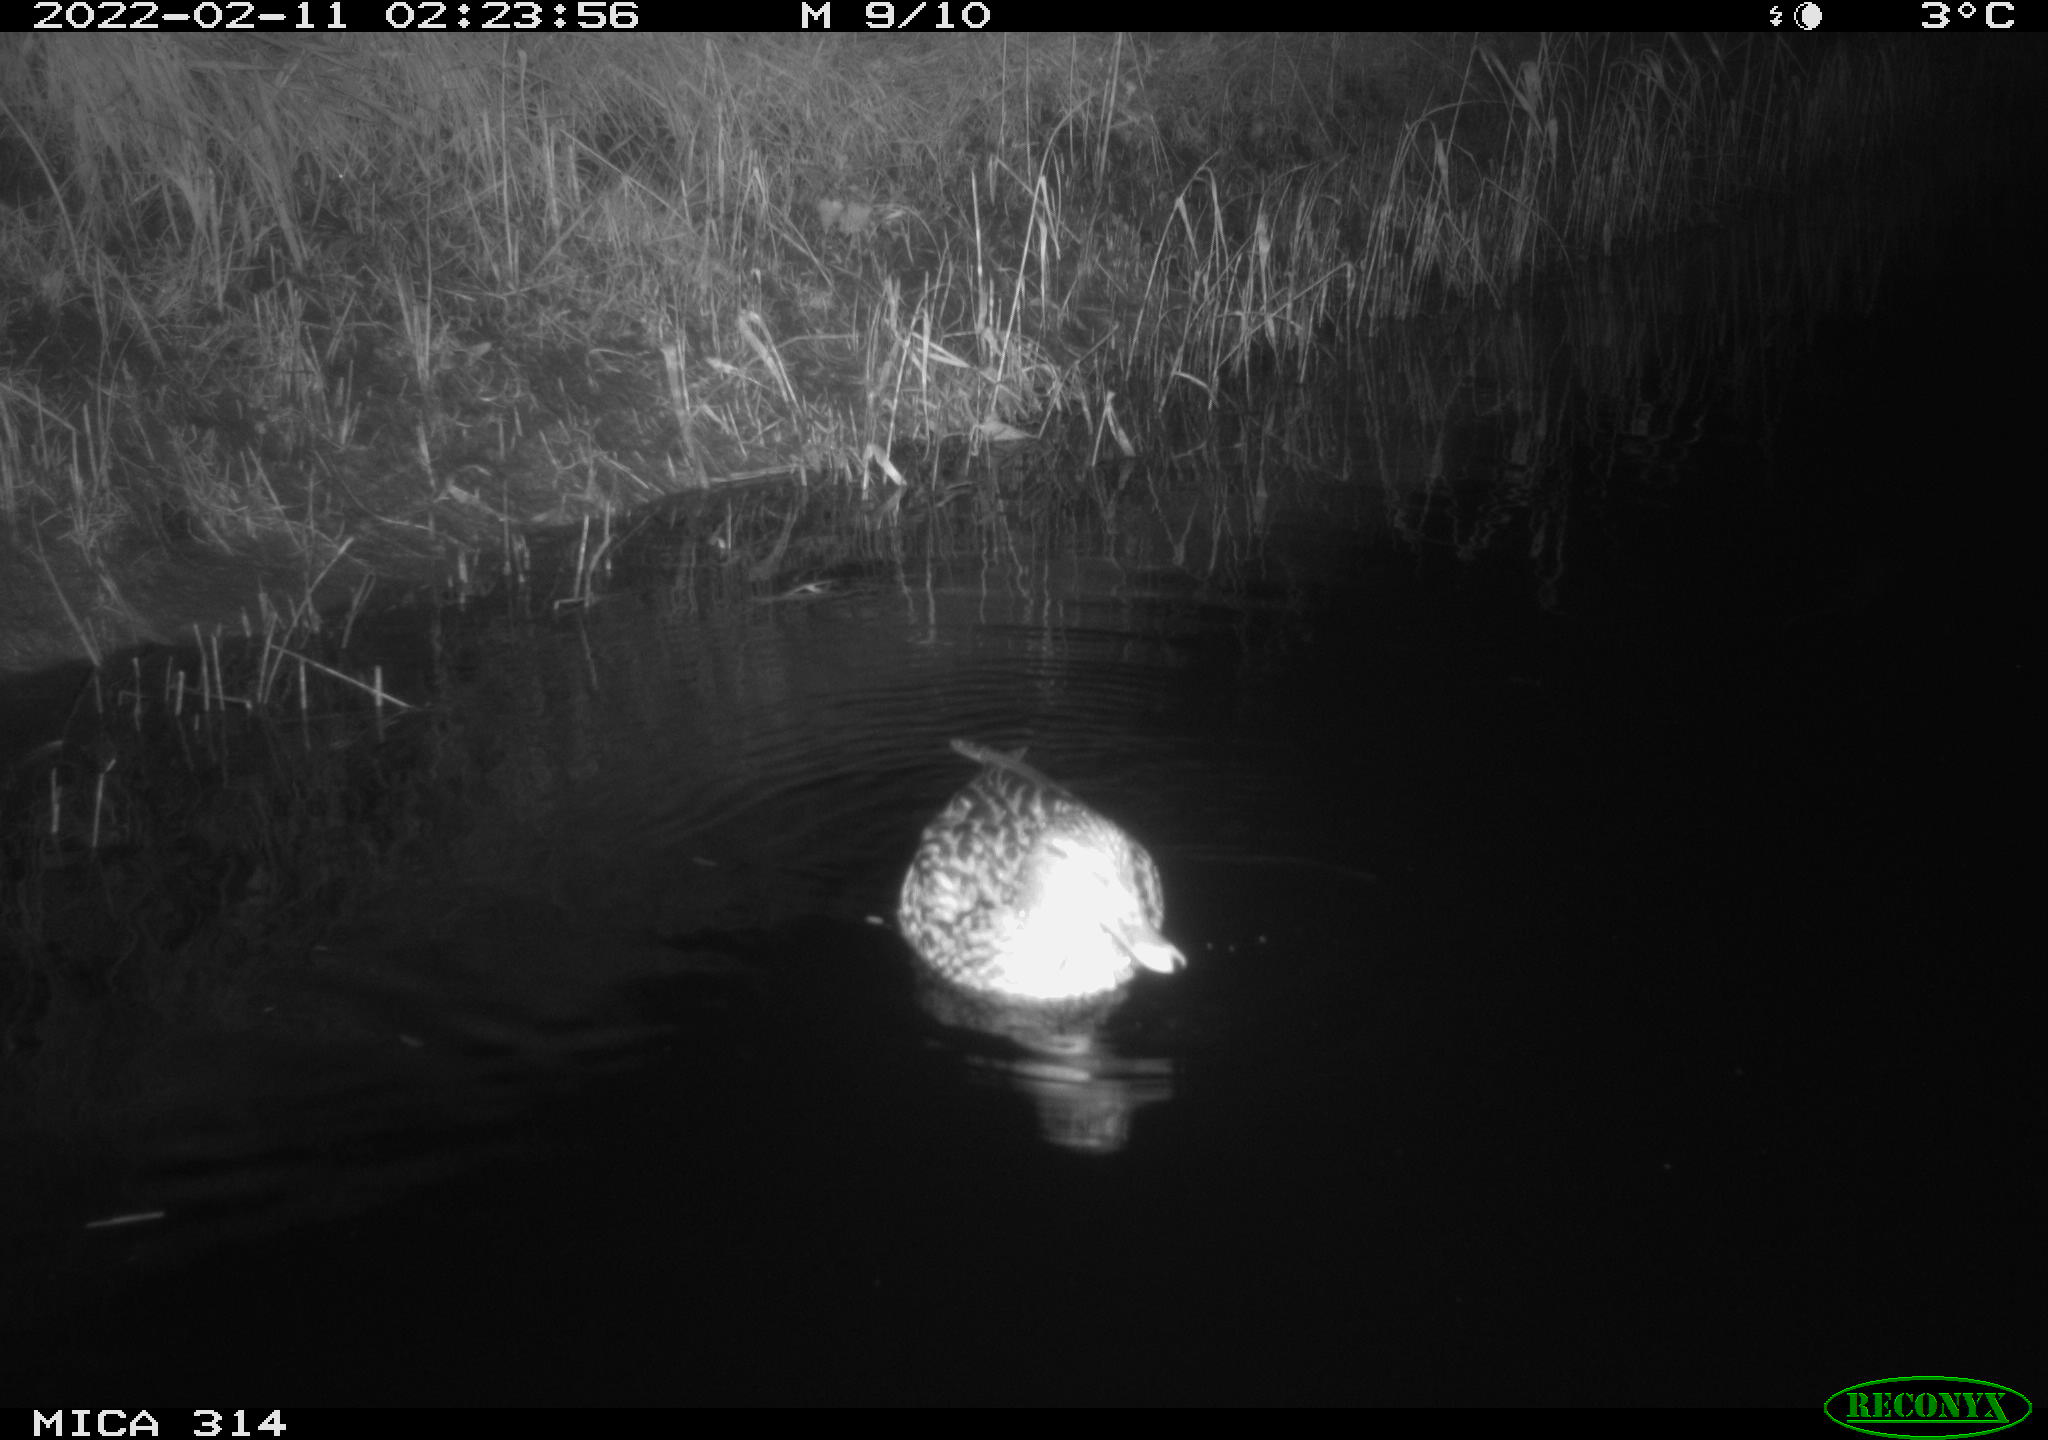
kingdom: Animalia
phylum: Chordata
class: Aves
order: Anseriformes
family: Anatidae
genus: Anas
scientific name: Anas platyrhynchos
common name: Mallard
